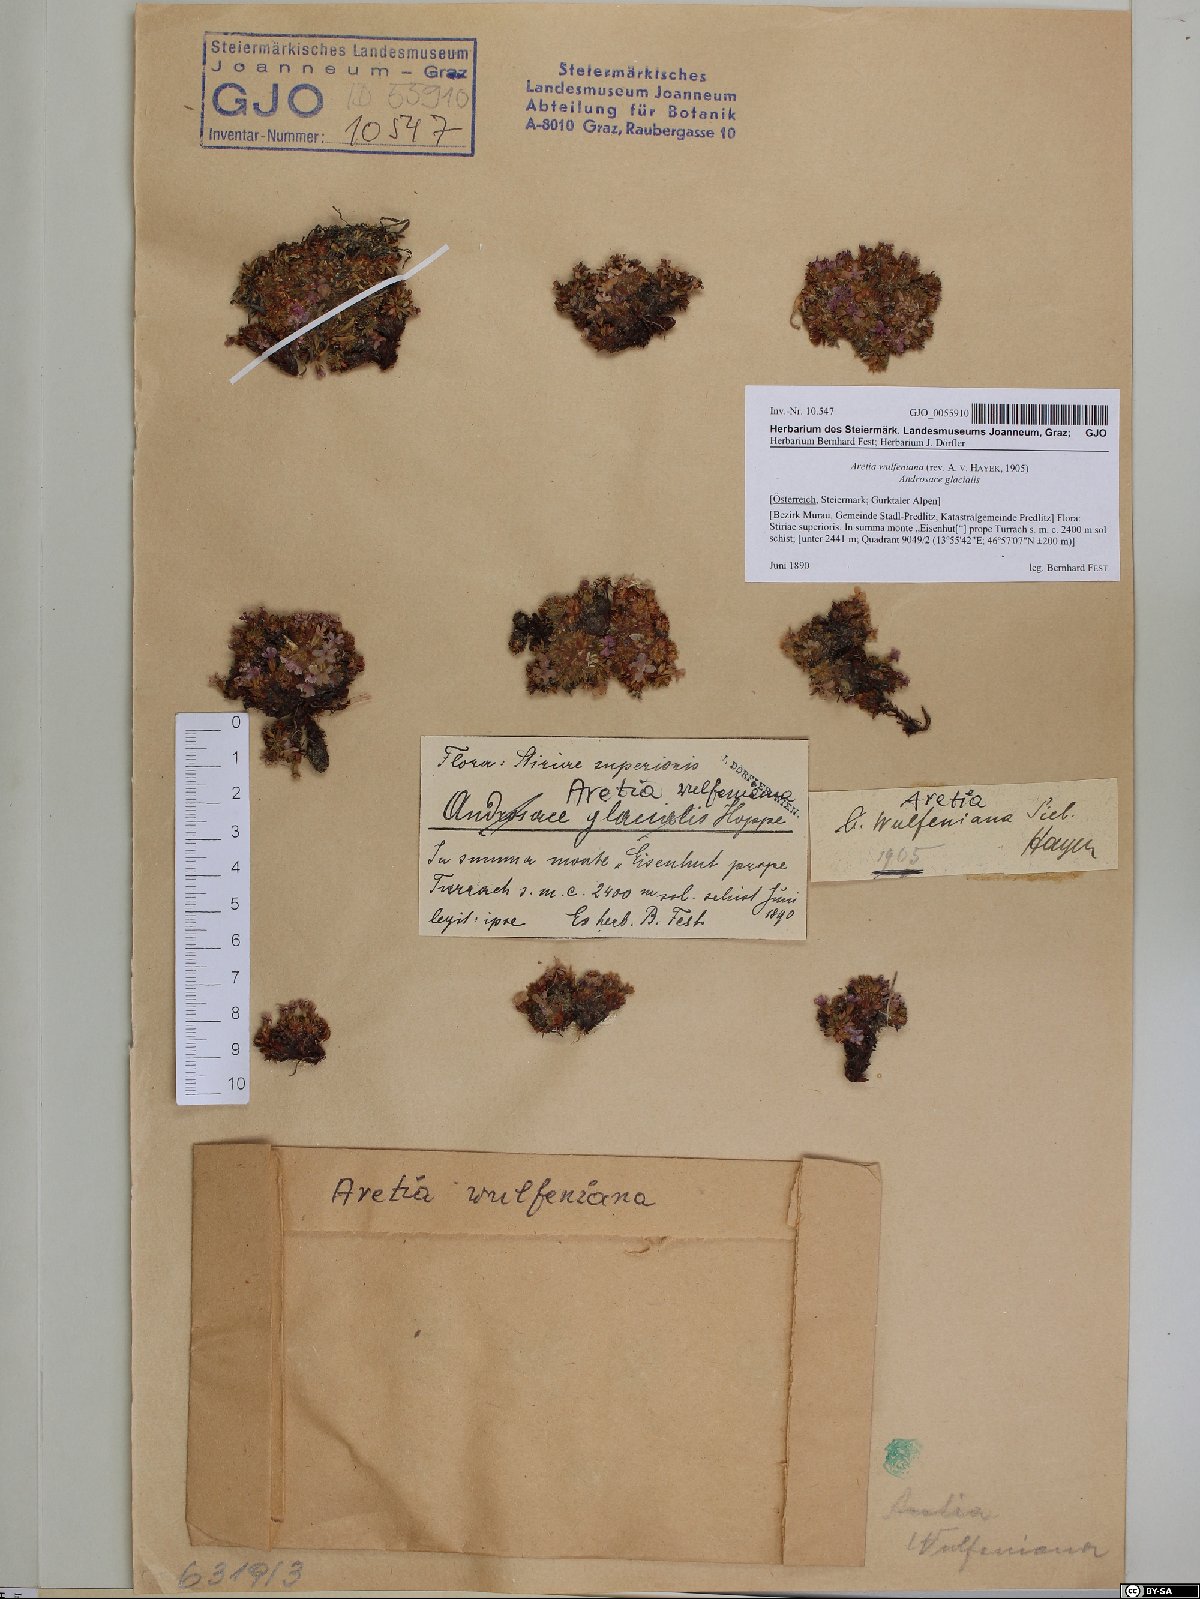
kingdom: Plantae
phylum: Tracheophyta
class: Magnoliopsida
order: Ericales
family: Primulaceae
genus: Androsace
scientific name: Androsace wulfeniana
